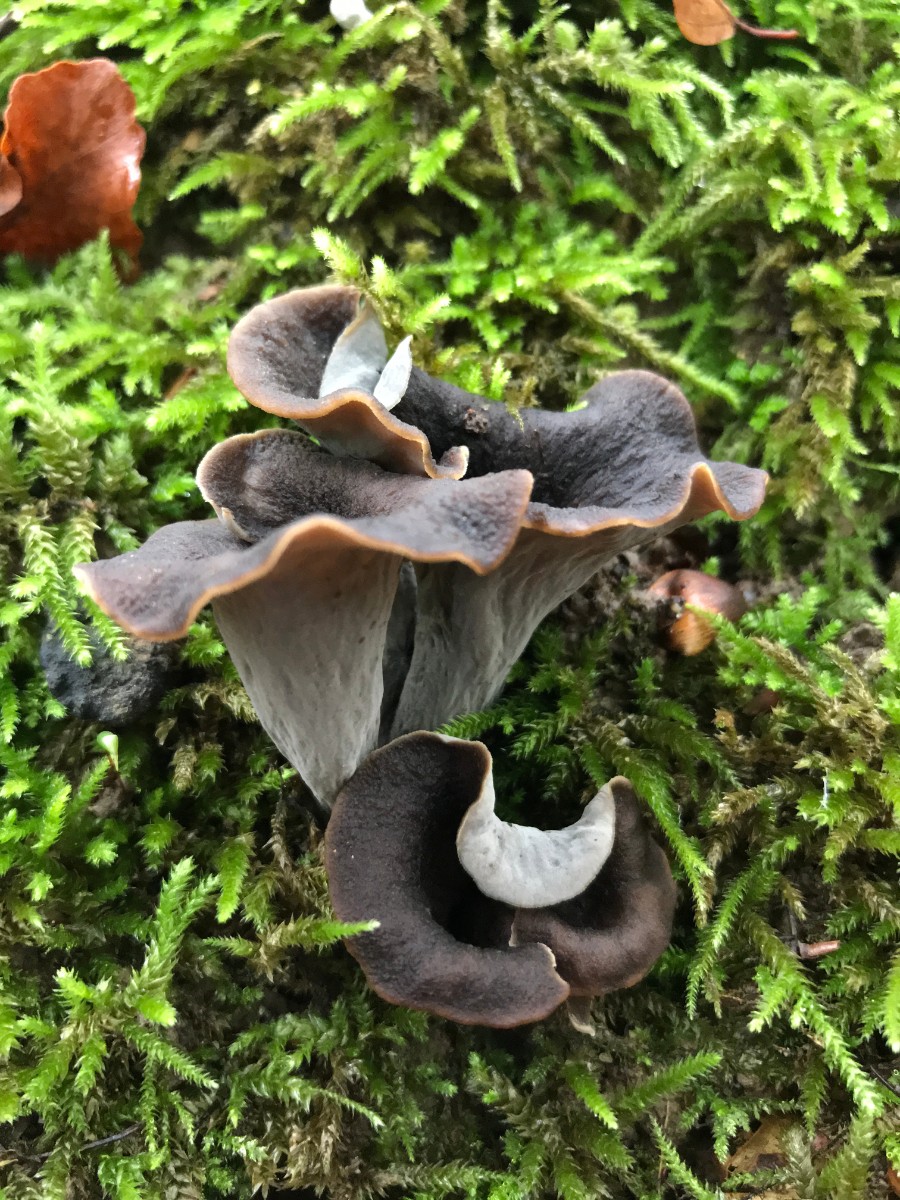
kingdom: Fungi
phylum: Basidiomycota
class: Agaricomycetes
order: Cantharellales
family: Hydnaceae
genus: Craterellus
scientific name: Craterellus cornucopioides
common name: trompetsvamp
